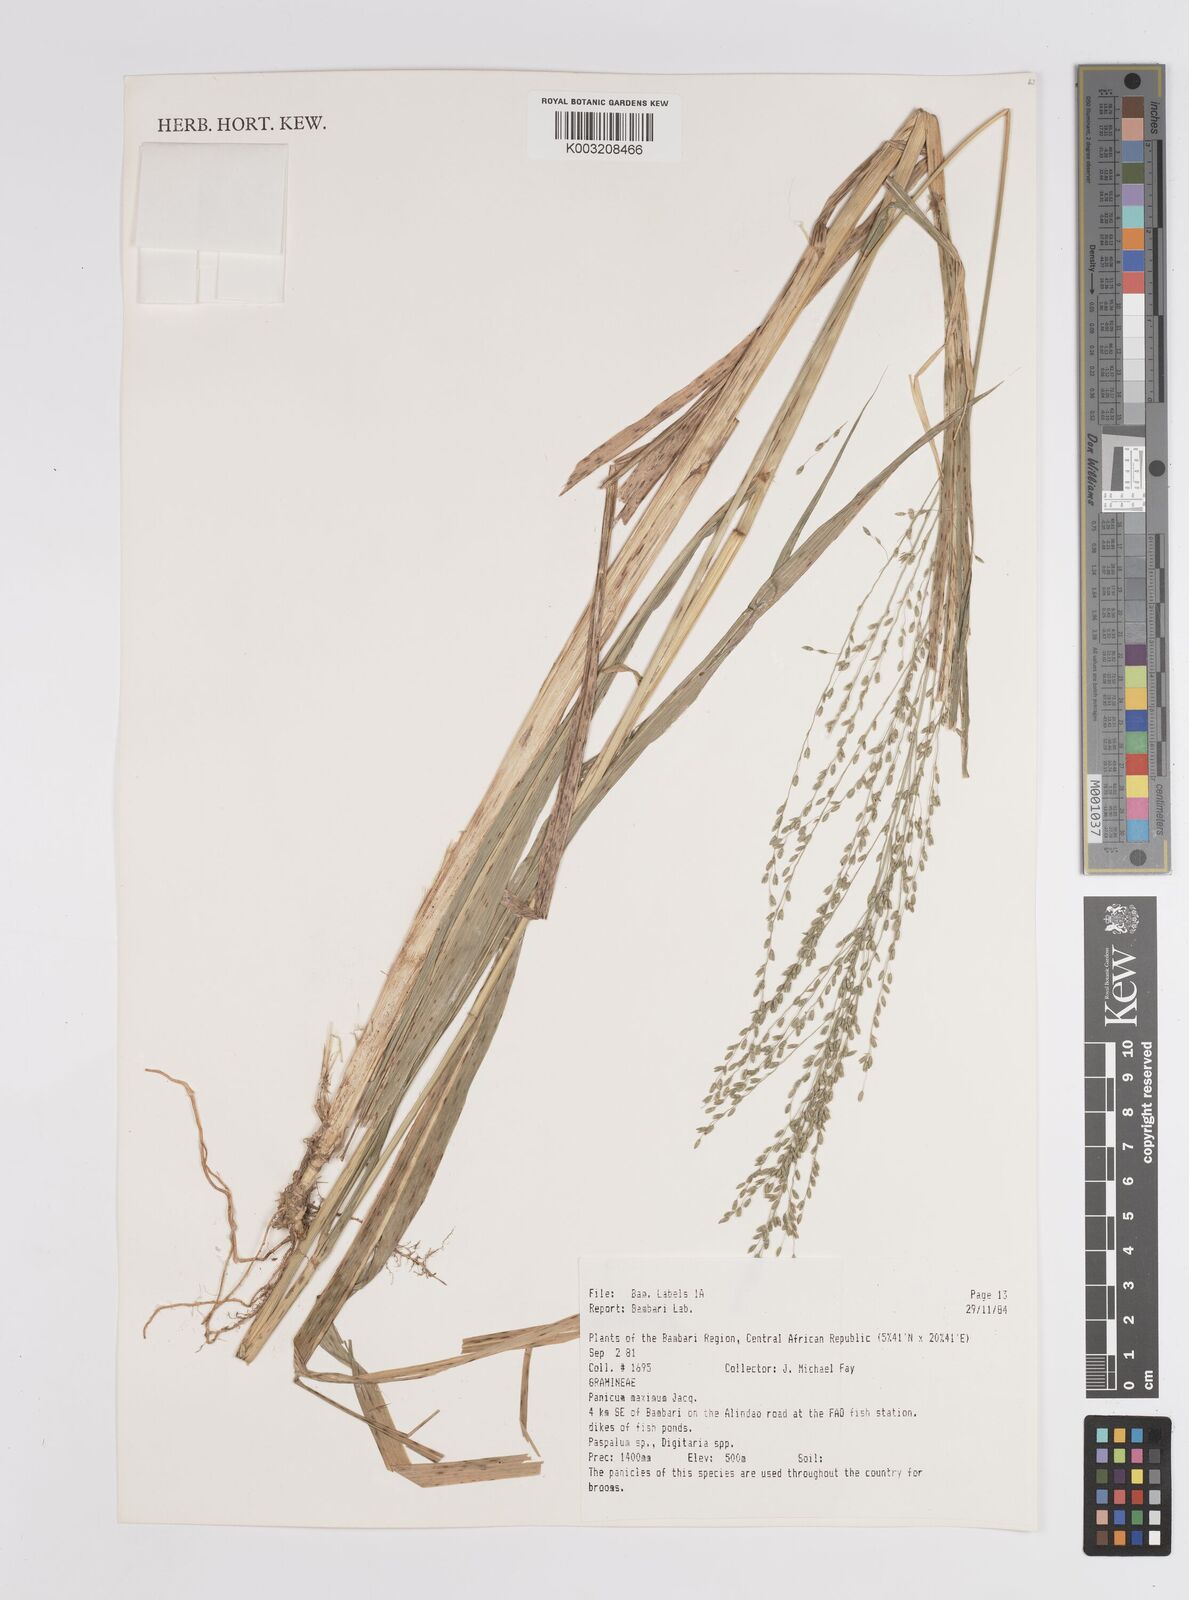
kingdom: Plantae
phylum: Tracheophyta
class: Liliopsida
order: Poales
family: Poaceae
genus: Megathyrsus
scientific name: Megathyrsus maximus
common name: Guineagrass
